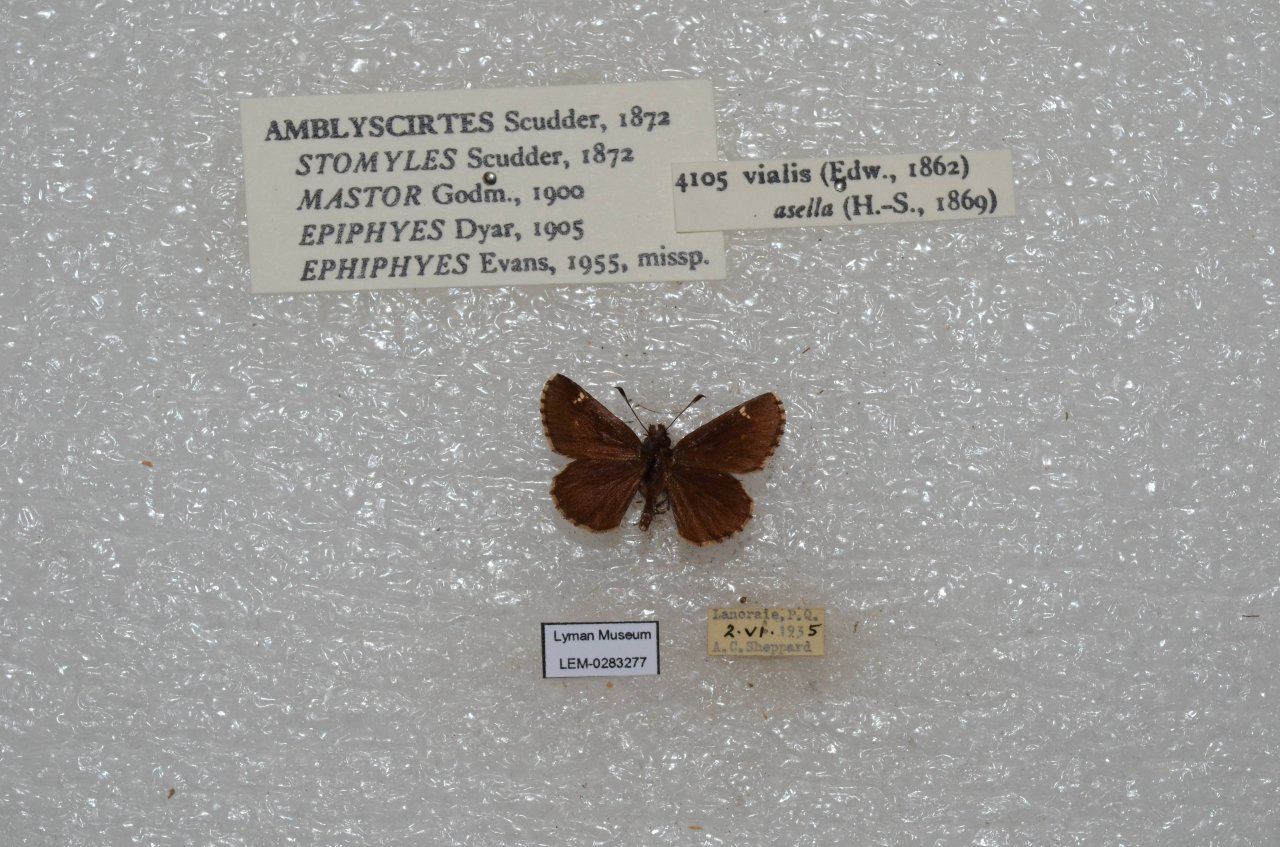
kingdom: Animalia
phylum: Arthropoda
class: Insecta
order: Lepidoptera
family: Hesperiidae
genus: Mastor
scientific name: Mastor vialis
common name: Common Roadside-Skipper
